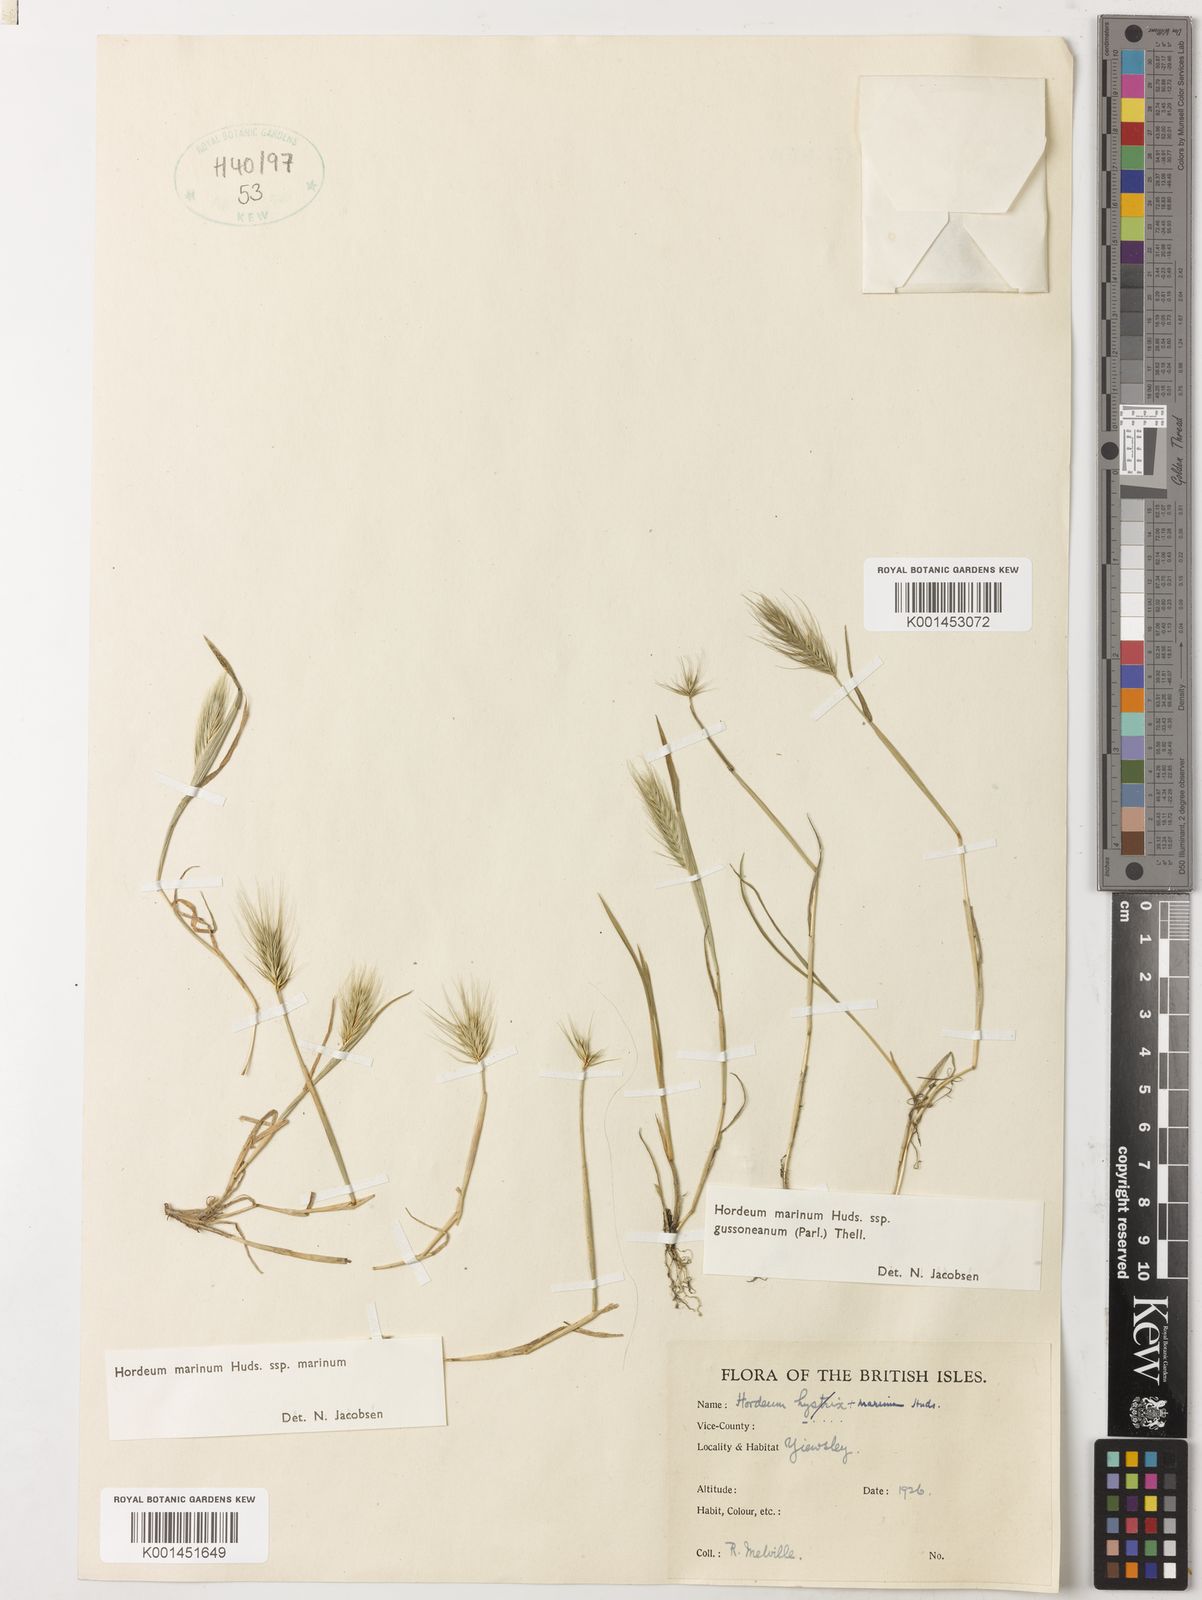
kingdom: Plantae
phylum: Tracheophyta
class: Liliopsida
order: Poales
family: Poaceae
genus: Hordeum
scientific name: Hordeum marinum
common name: Sea barley
